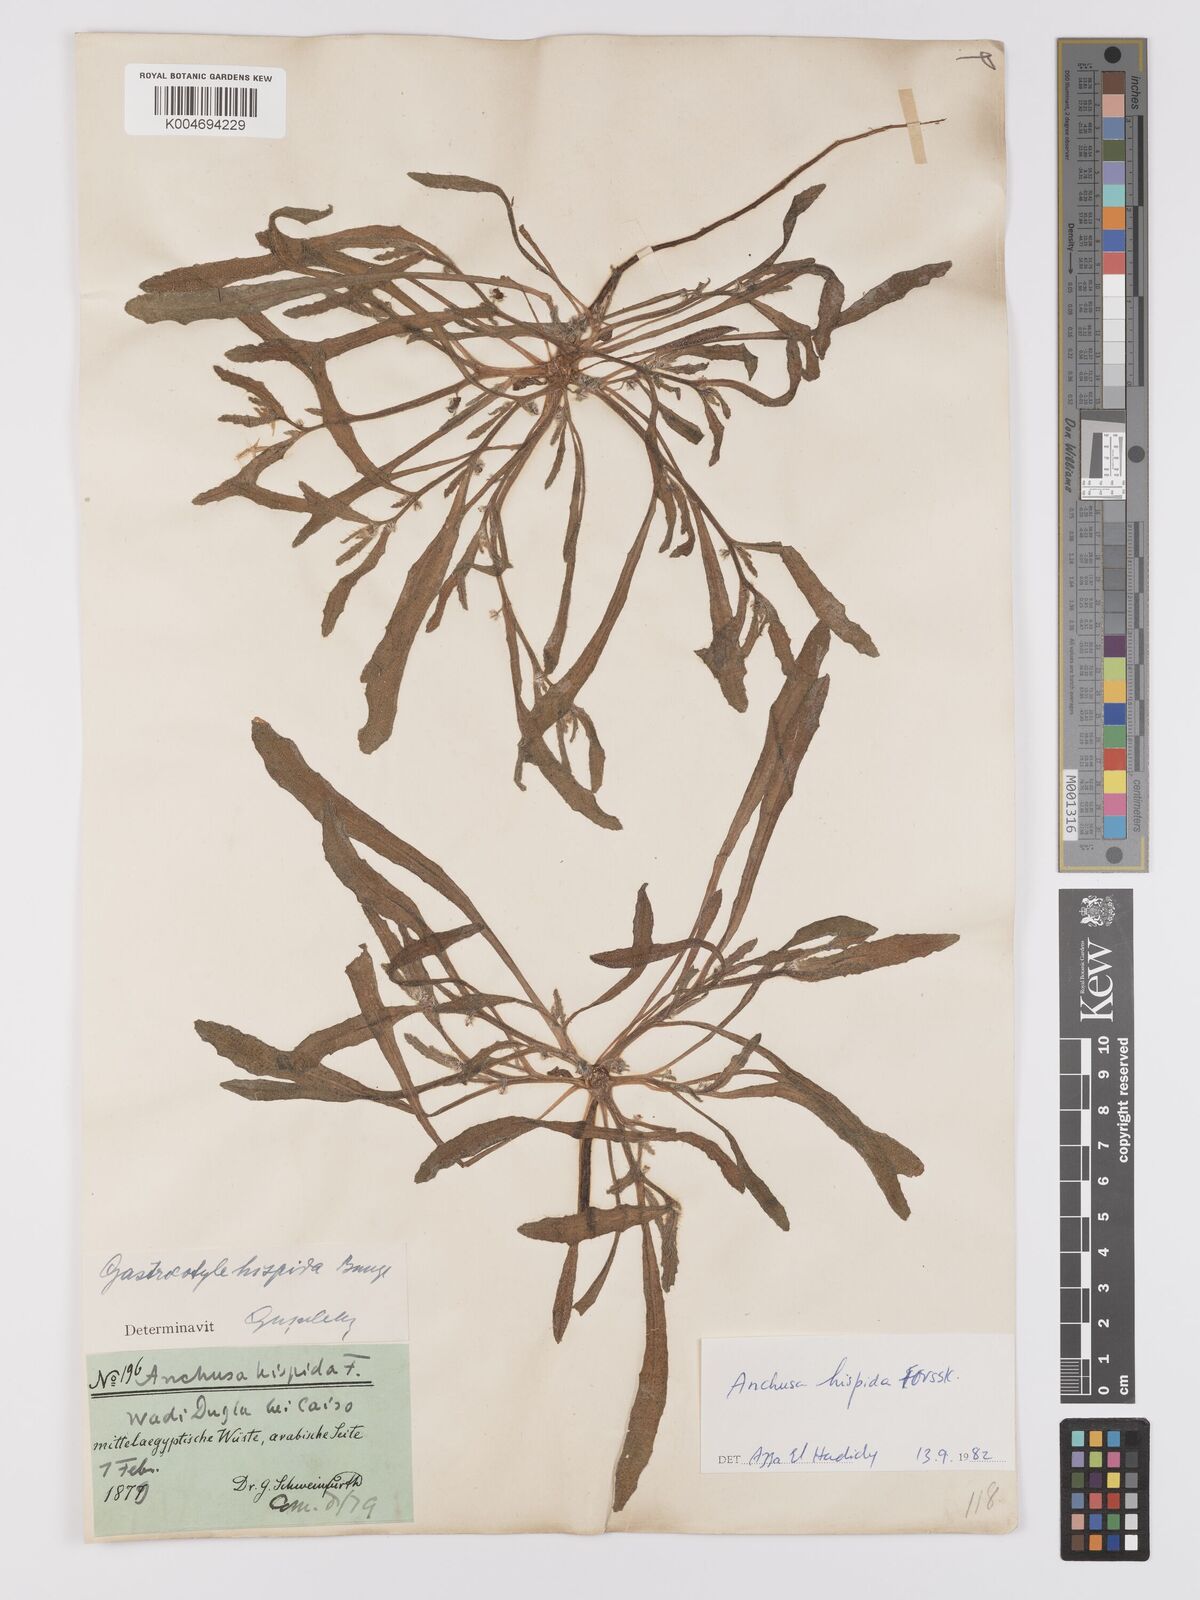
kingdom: Plantae
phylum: Tracheophyta
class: Magnoliopsida
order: Boraginales
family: Boraginaceae
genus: Gastrocotyle
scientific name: Gastrocotyle hispida
